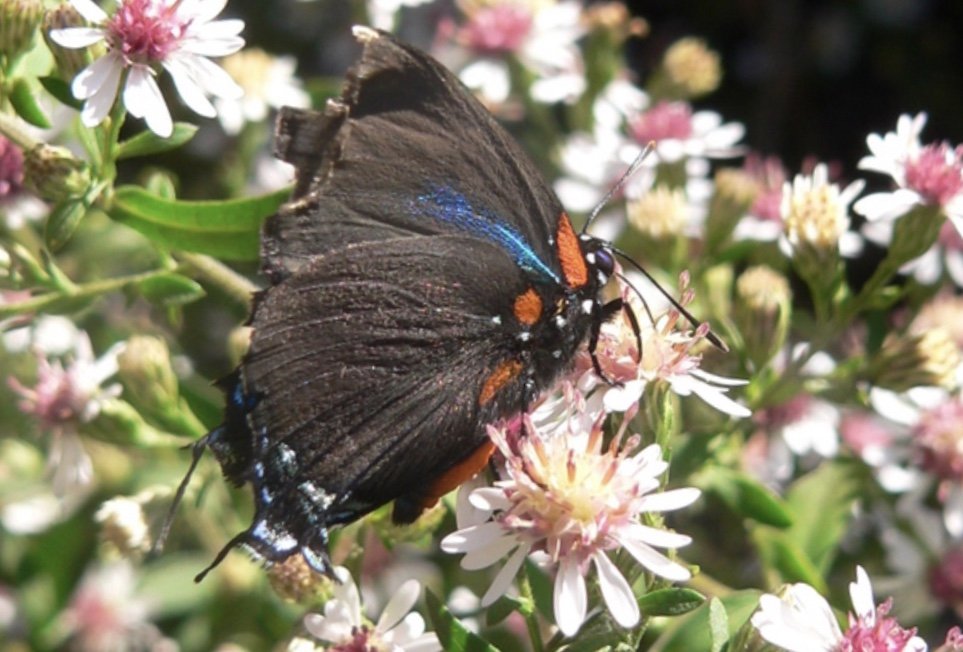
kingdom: Animalia
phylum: Arthropoda
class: Insecta
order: Lepidoptera
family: Lycaenidae
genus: Atlides
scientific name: Atlides halesus
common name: Great Purple Hairstreak
